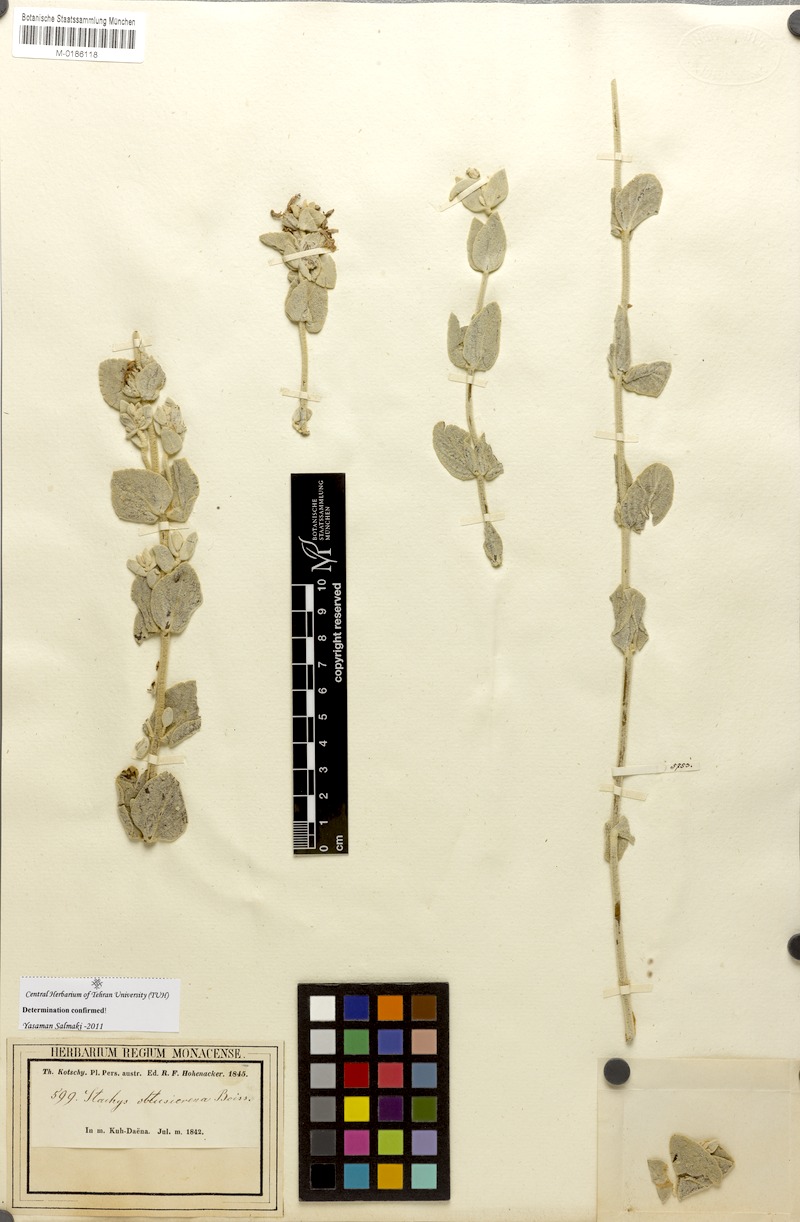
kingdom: Plantae
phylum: Tracheophyta
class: Magnoliopsida
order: Lamiales
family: Lamiaceae
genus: Stachys
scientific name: Stachys obtusicrena
